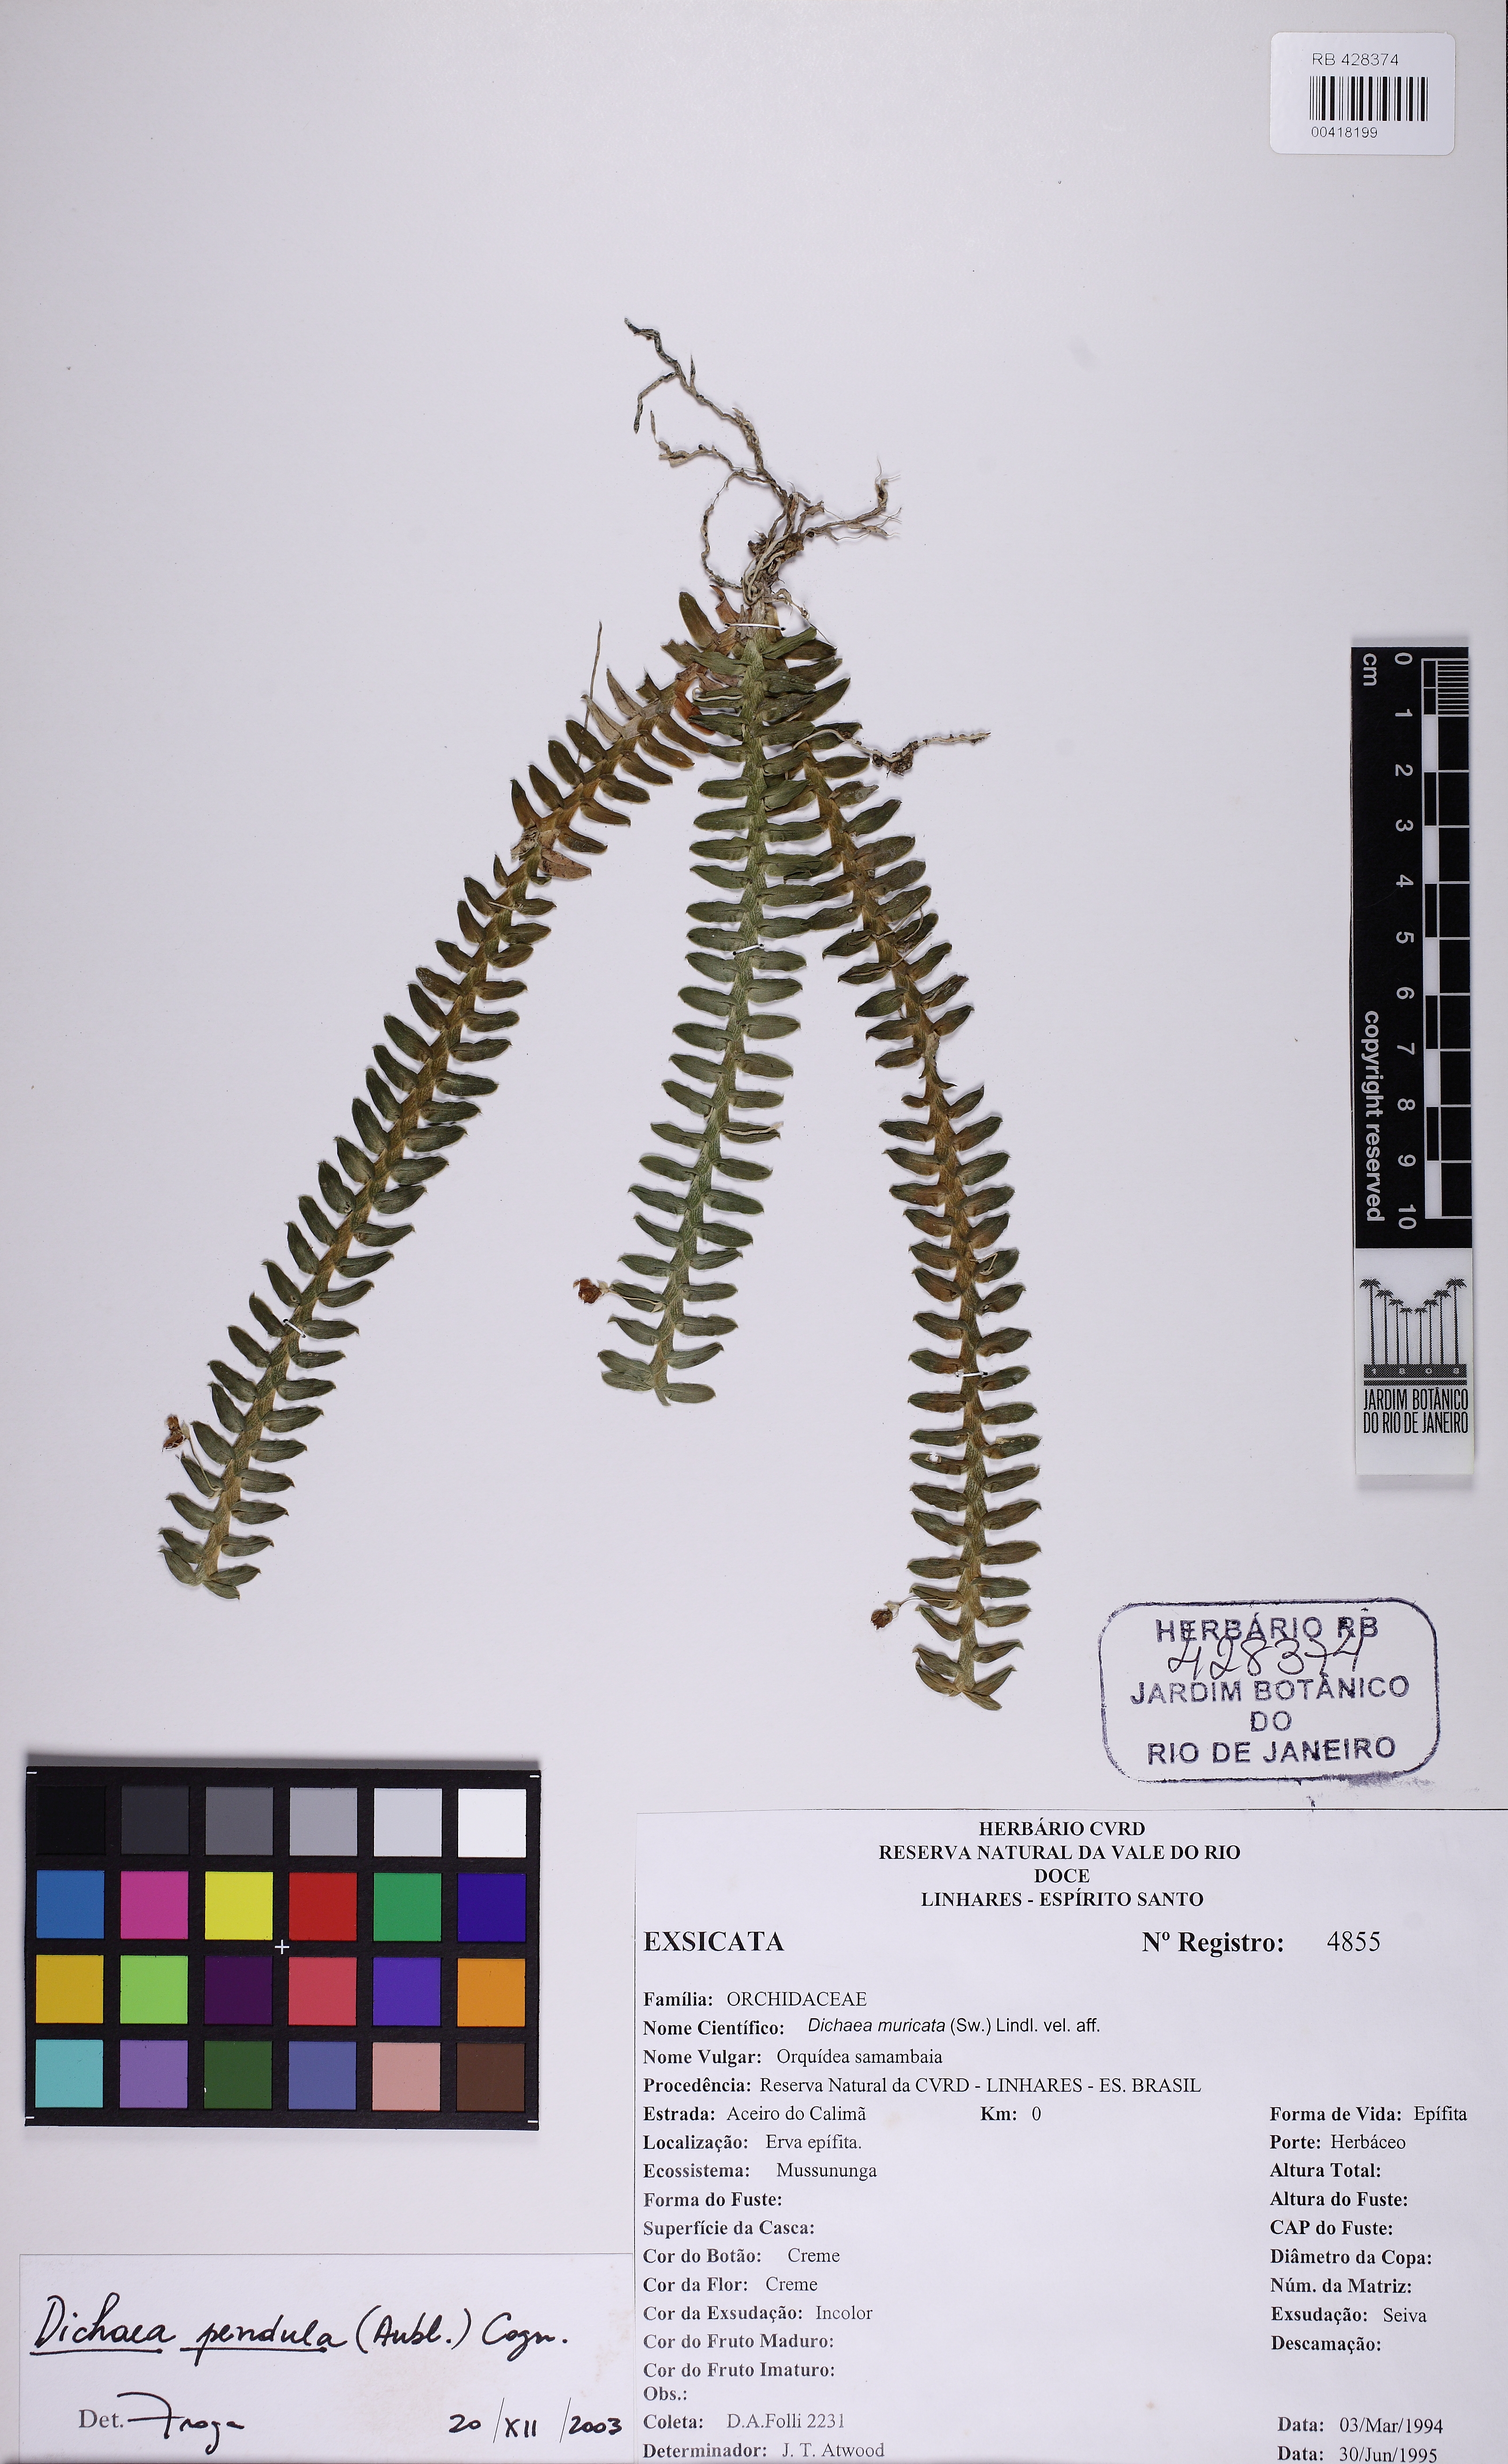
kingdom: Plantae
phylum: Tracheophyta
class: Liliopsida
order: Asparagales
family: Orchidaceae
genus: Dichaea
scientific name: Dichaea pendula
